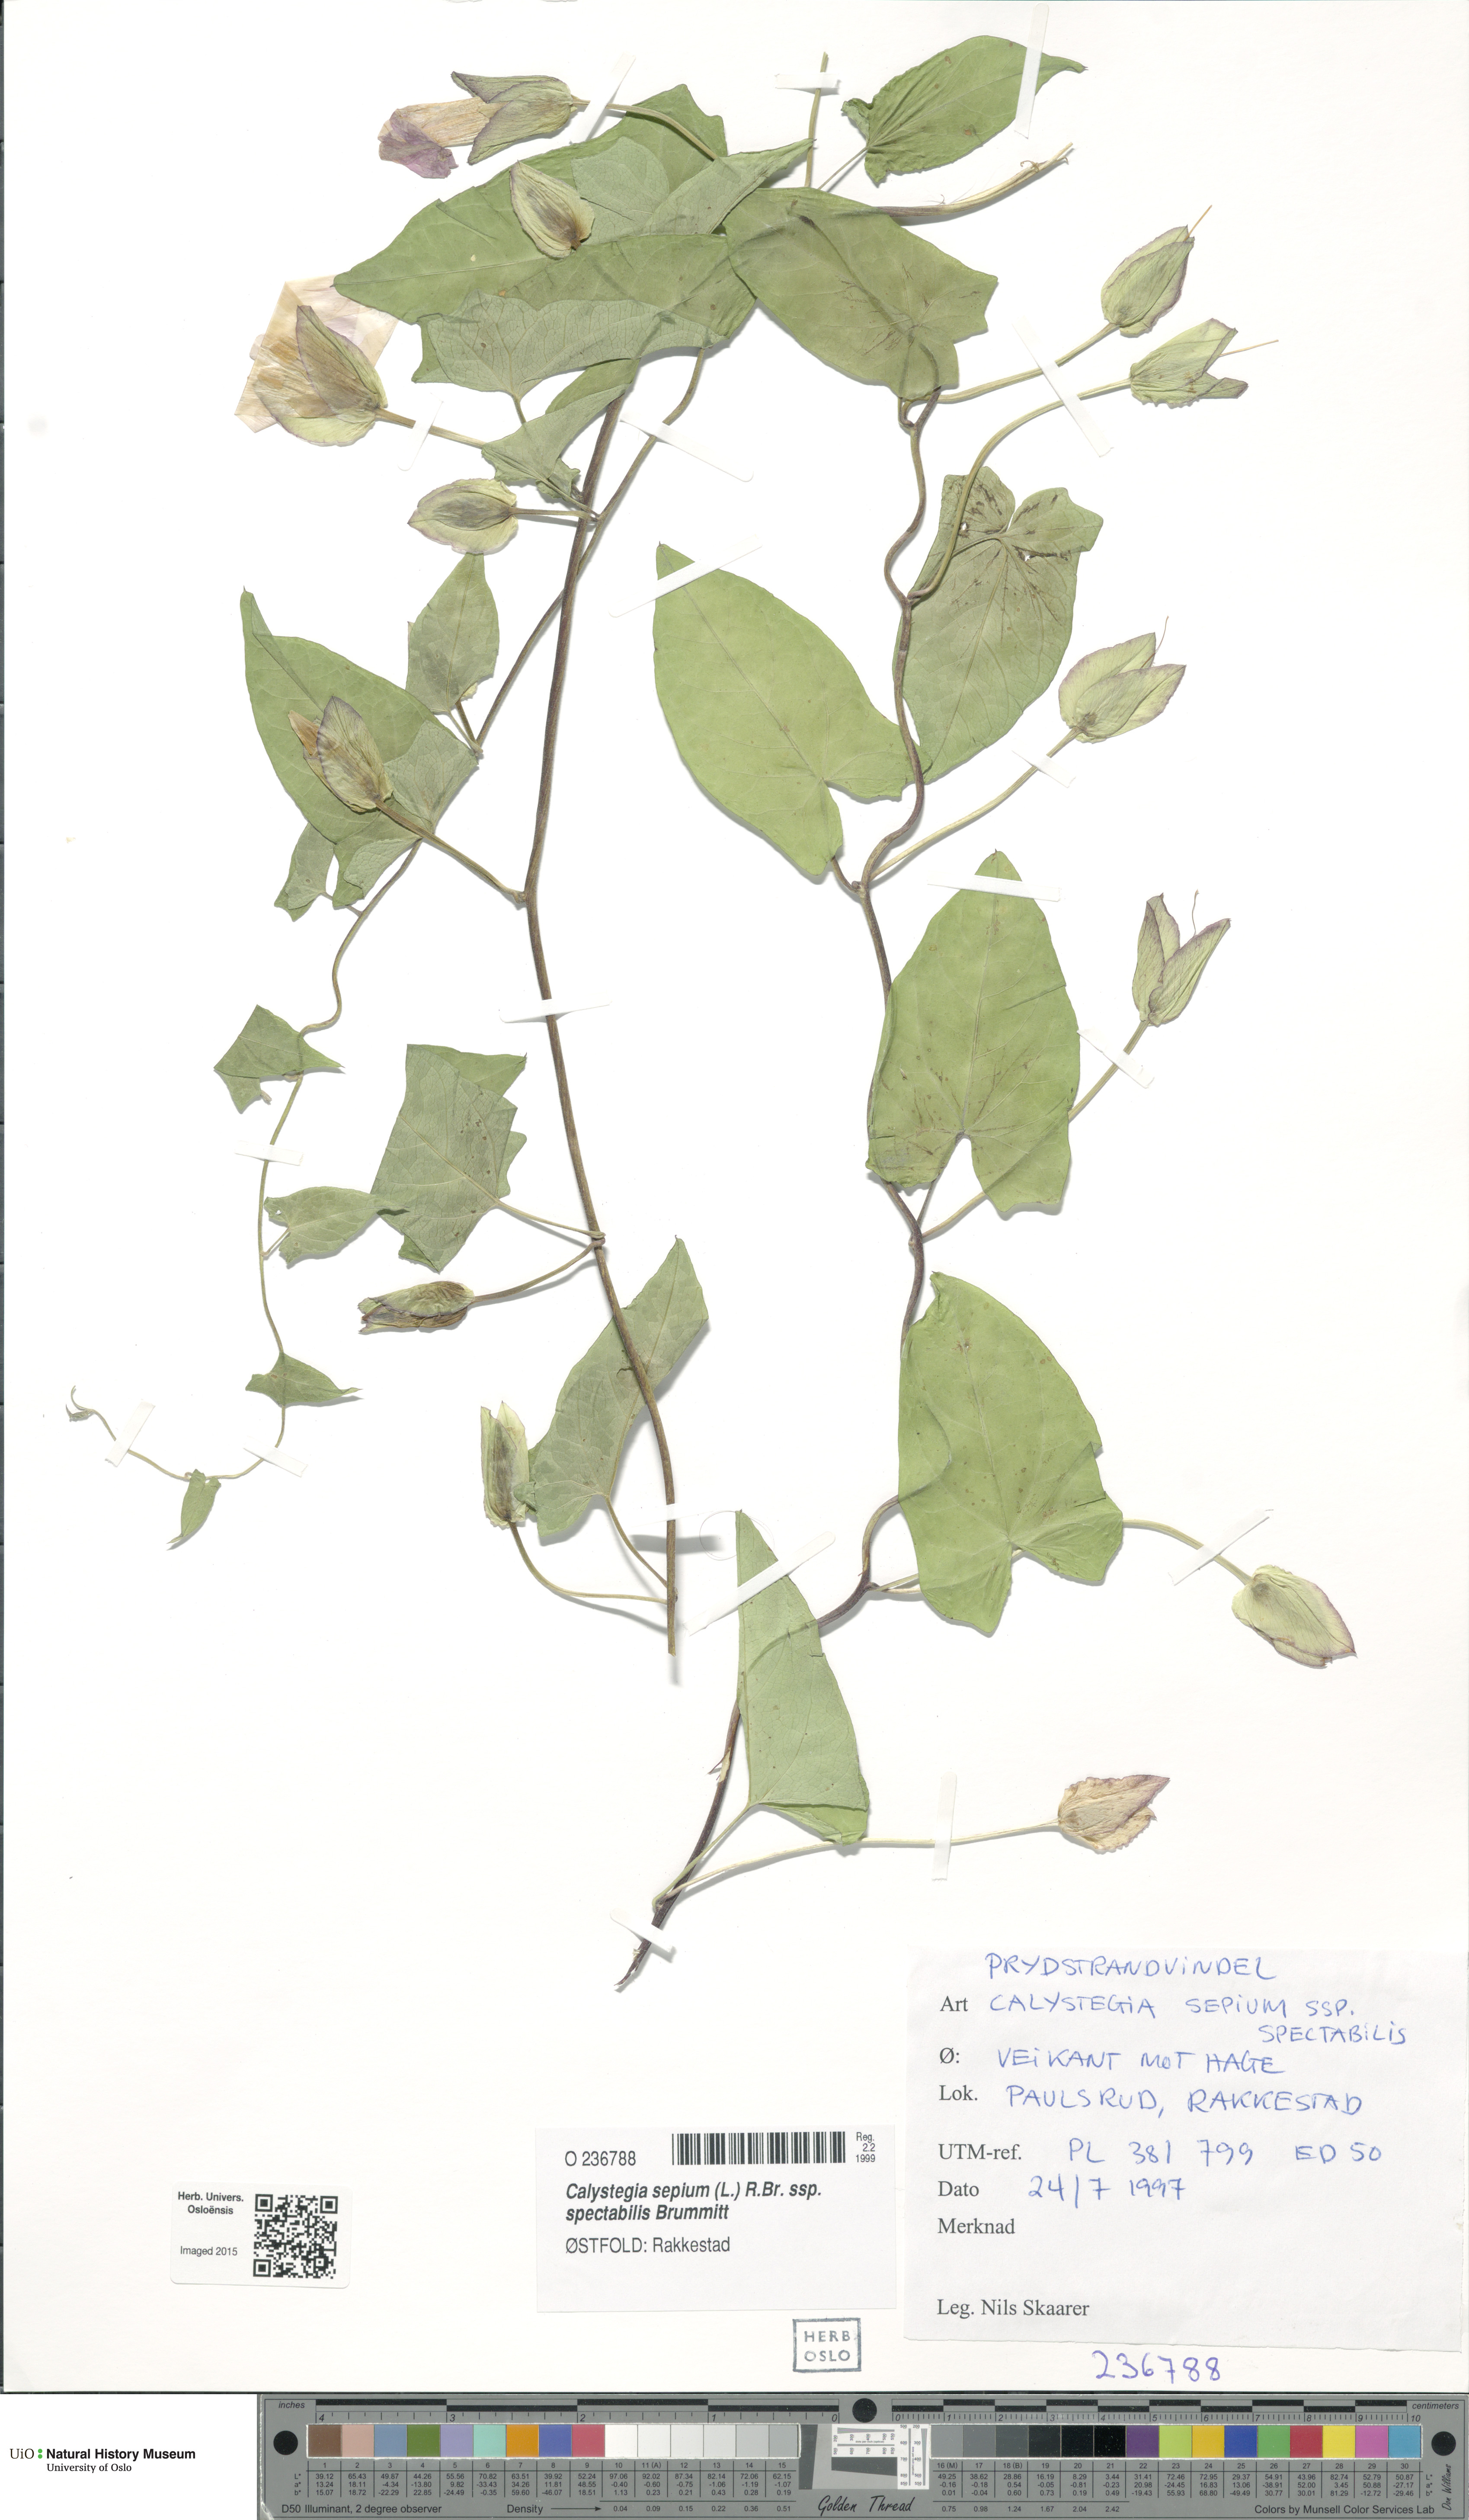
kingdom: Plantae
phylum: Tracheophyta
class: Magnoliopsida
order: Solanales
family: Convolvulaceae
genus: Calystegia
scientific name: Calystegia sepium
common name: Hedge bindweed
